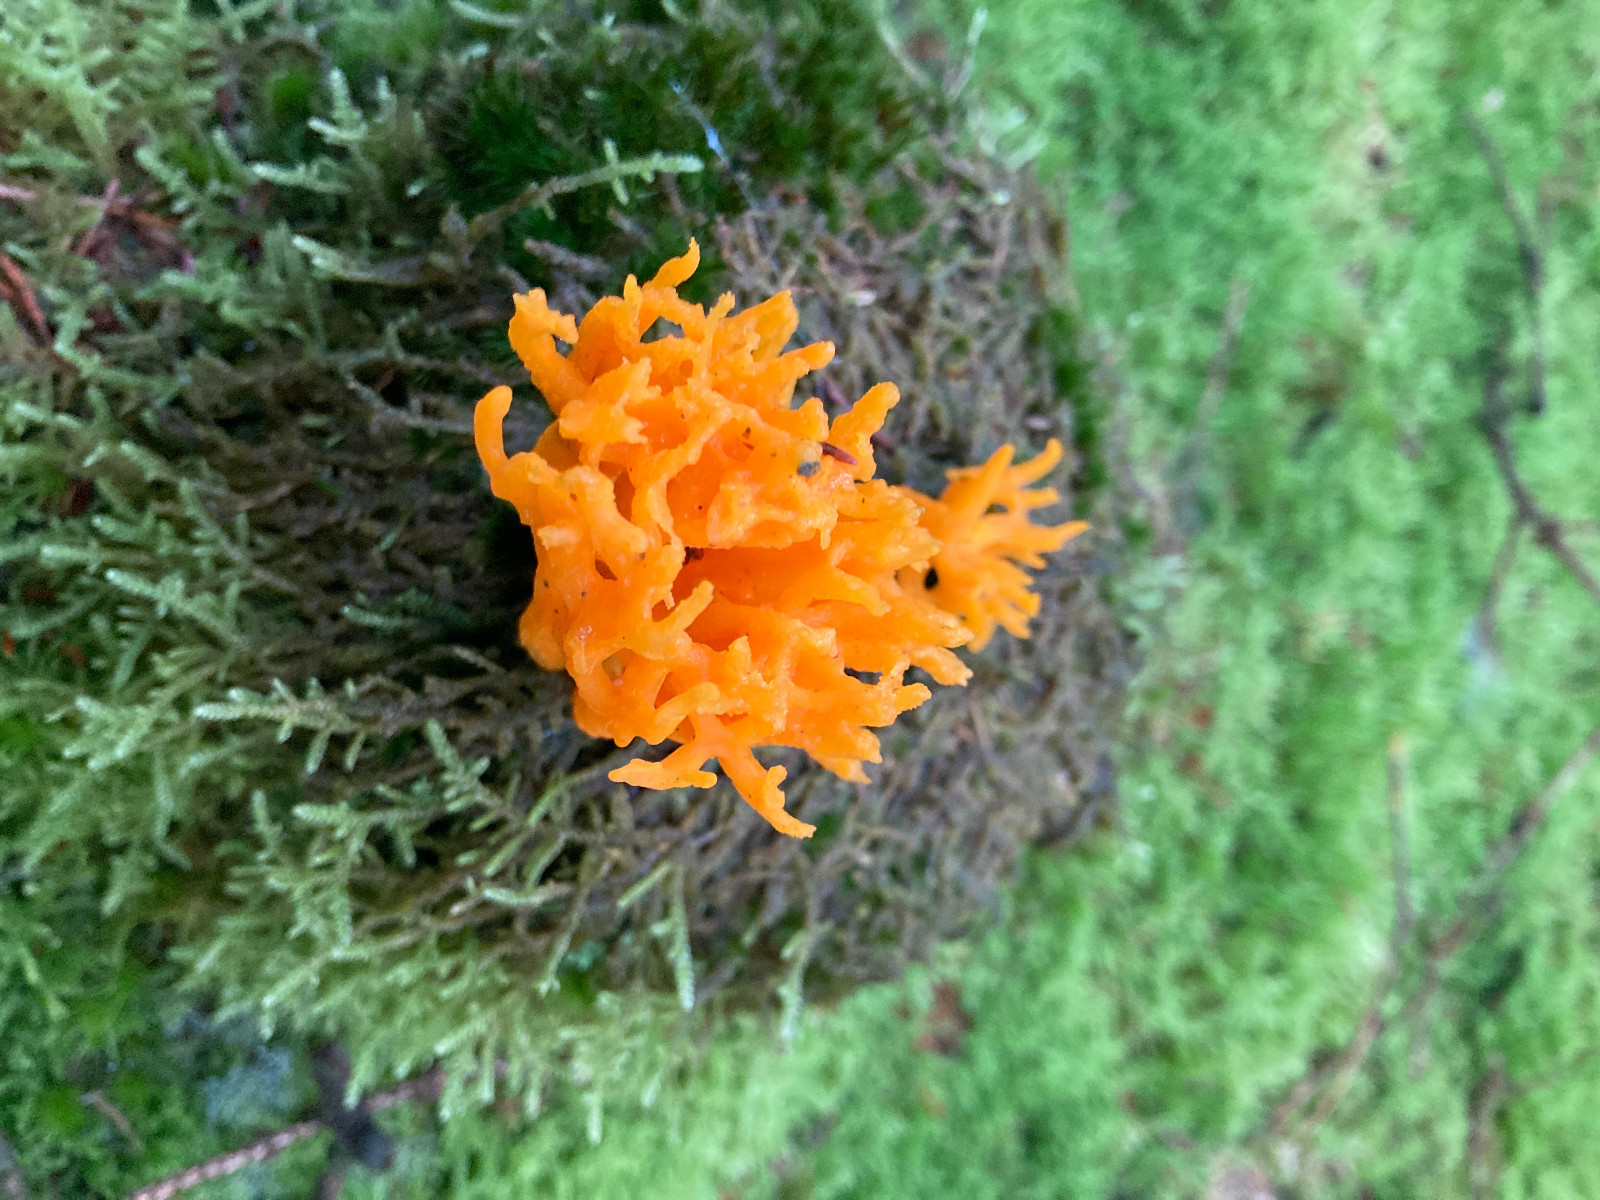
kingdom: Fungi
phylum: Basidiomycota
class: Dacrymycetes
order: Dacrymycetales
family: Dacrymycetaceae
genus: Calocera
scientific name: Calocera viscosa
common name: almindelig guldgaffel
